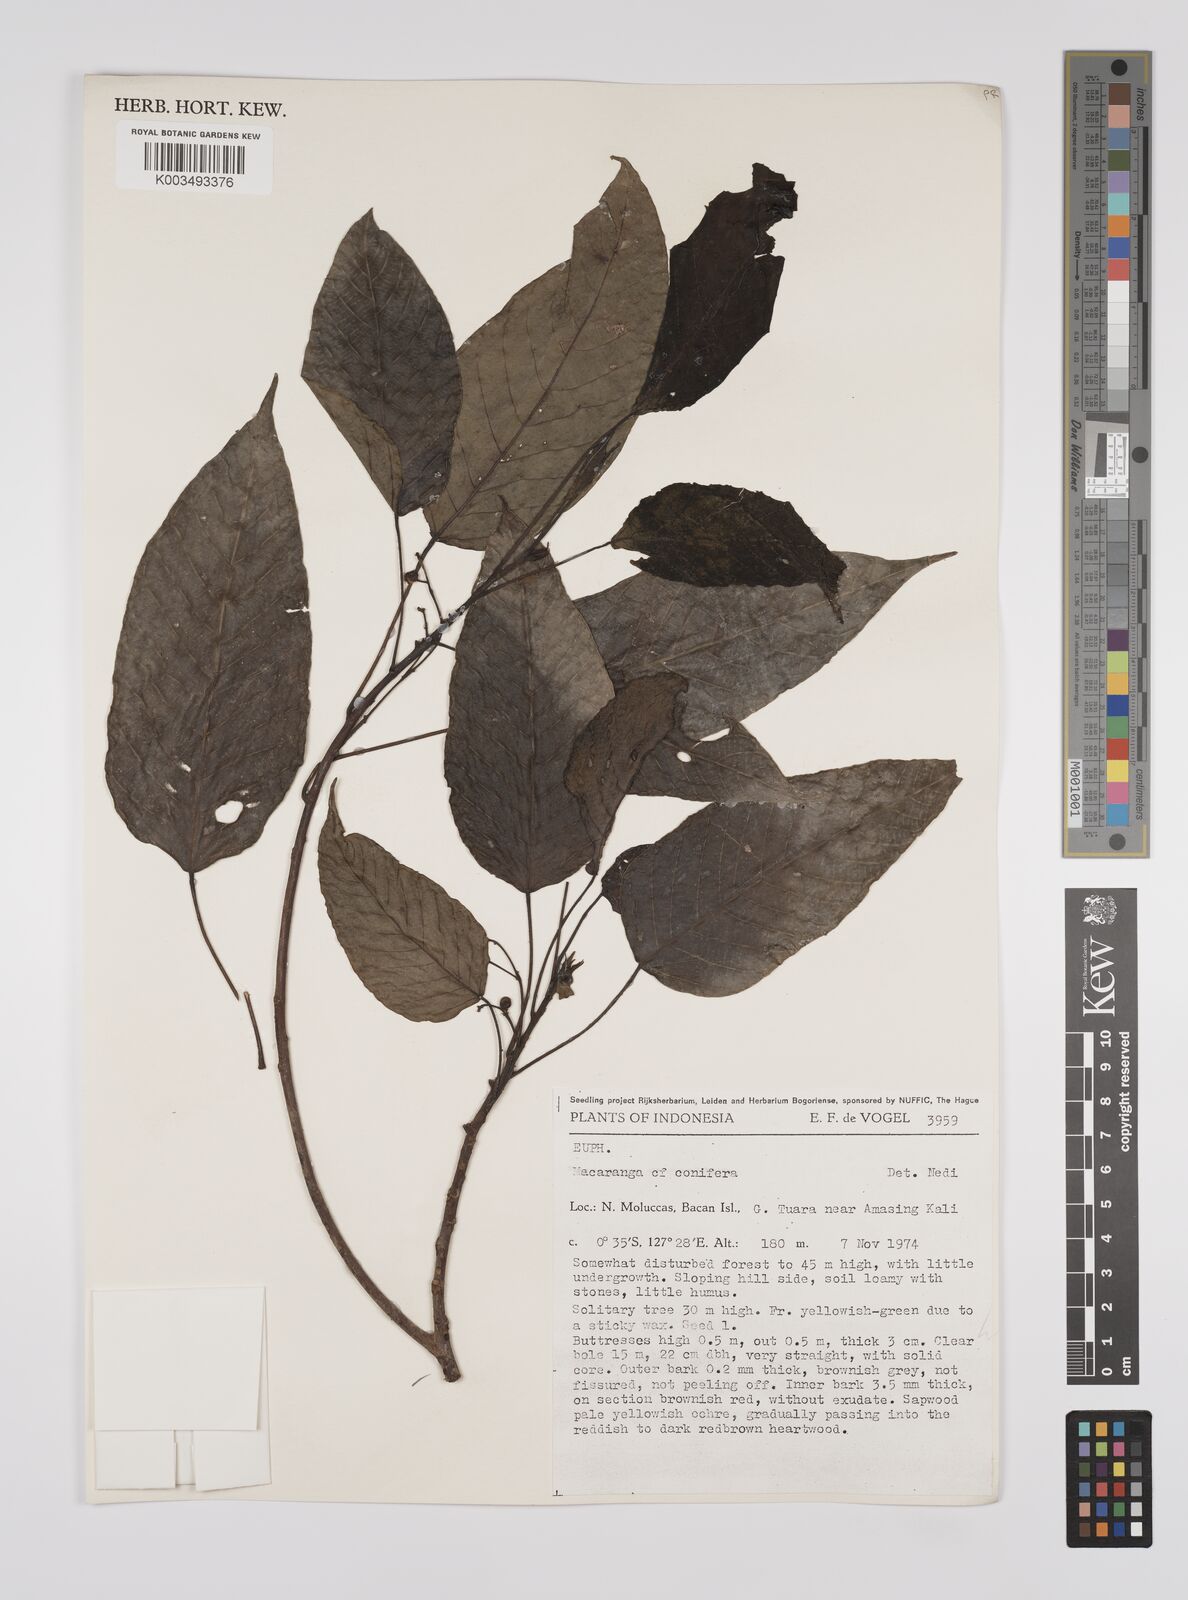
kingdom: Plantae
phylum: Tracheophyta
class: Magnoliopsida
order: Malpighiales
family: Euphorbiaceae
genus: Macaranga
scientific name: Macaranga conifera
